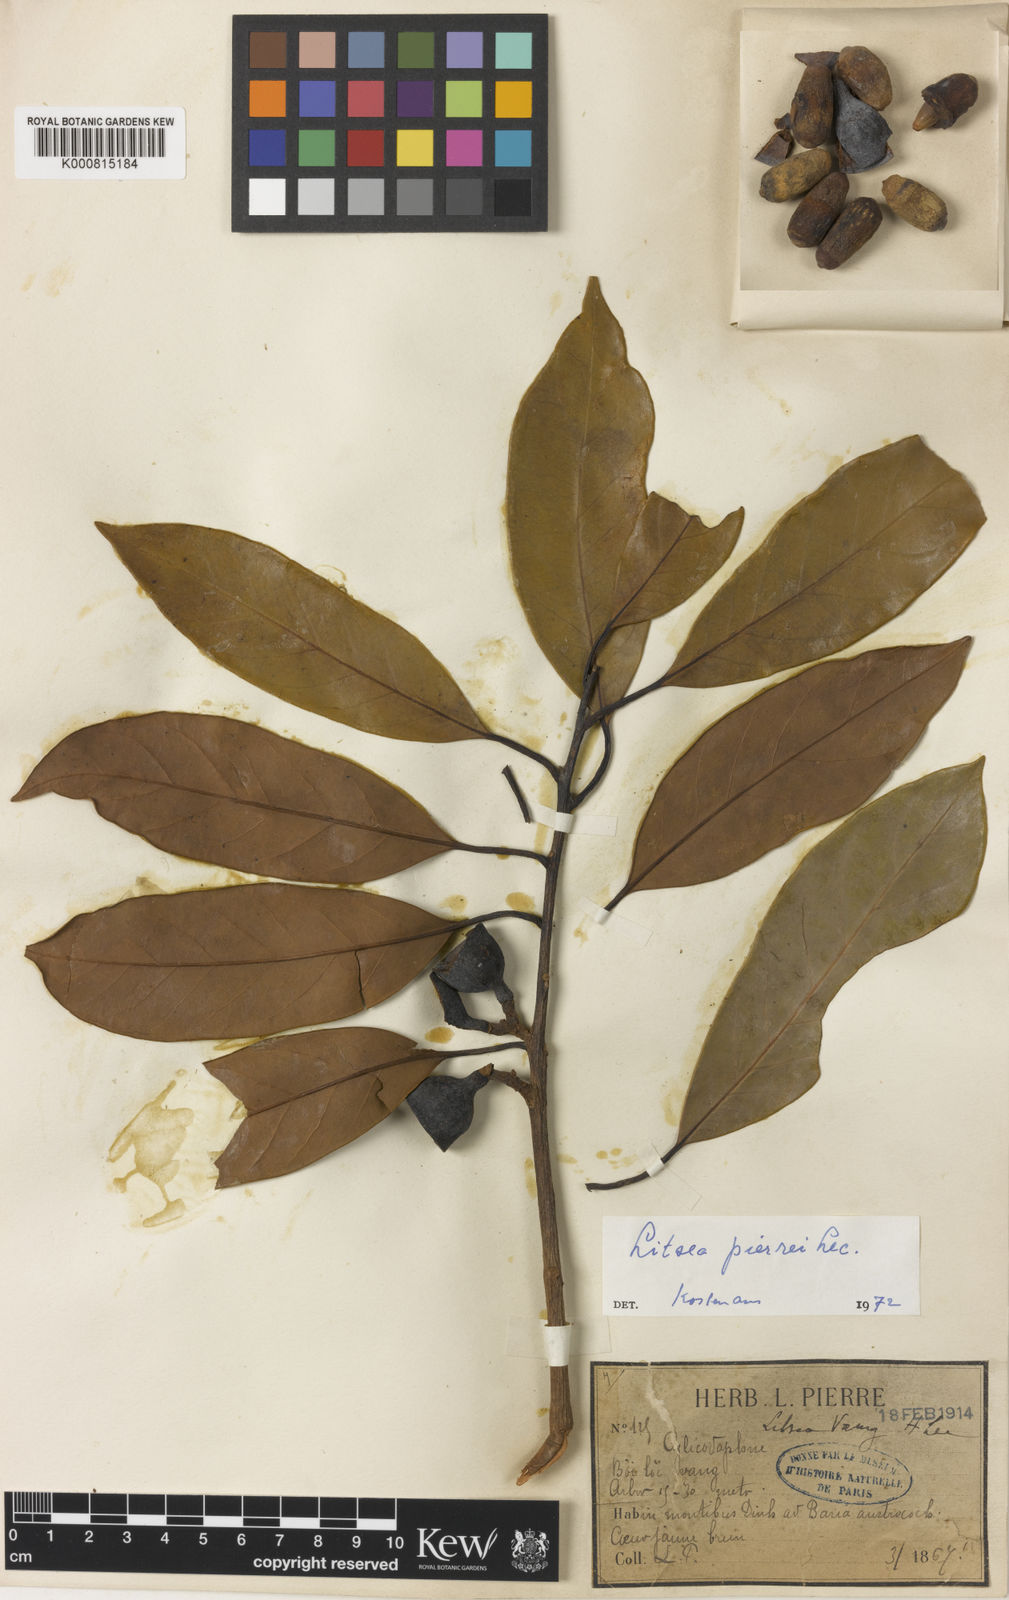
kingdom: Plantae
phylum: Tracheophyta
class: Magnoliopsida
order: Laurales
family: Lauraceae
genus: Litsea
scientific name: Litsea cambodiana
